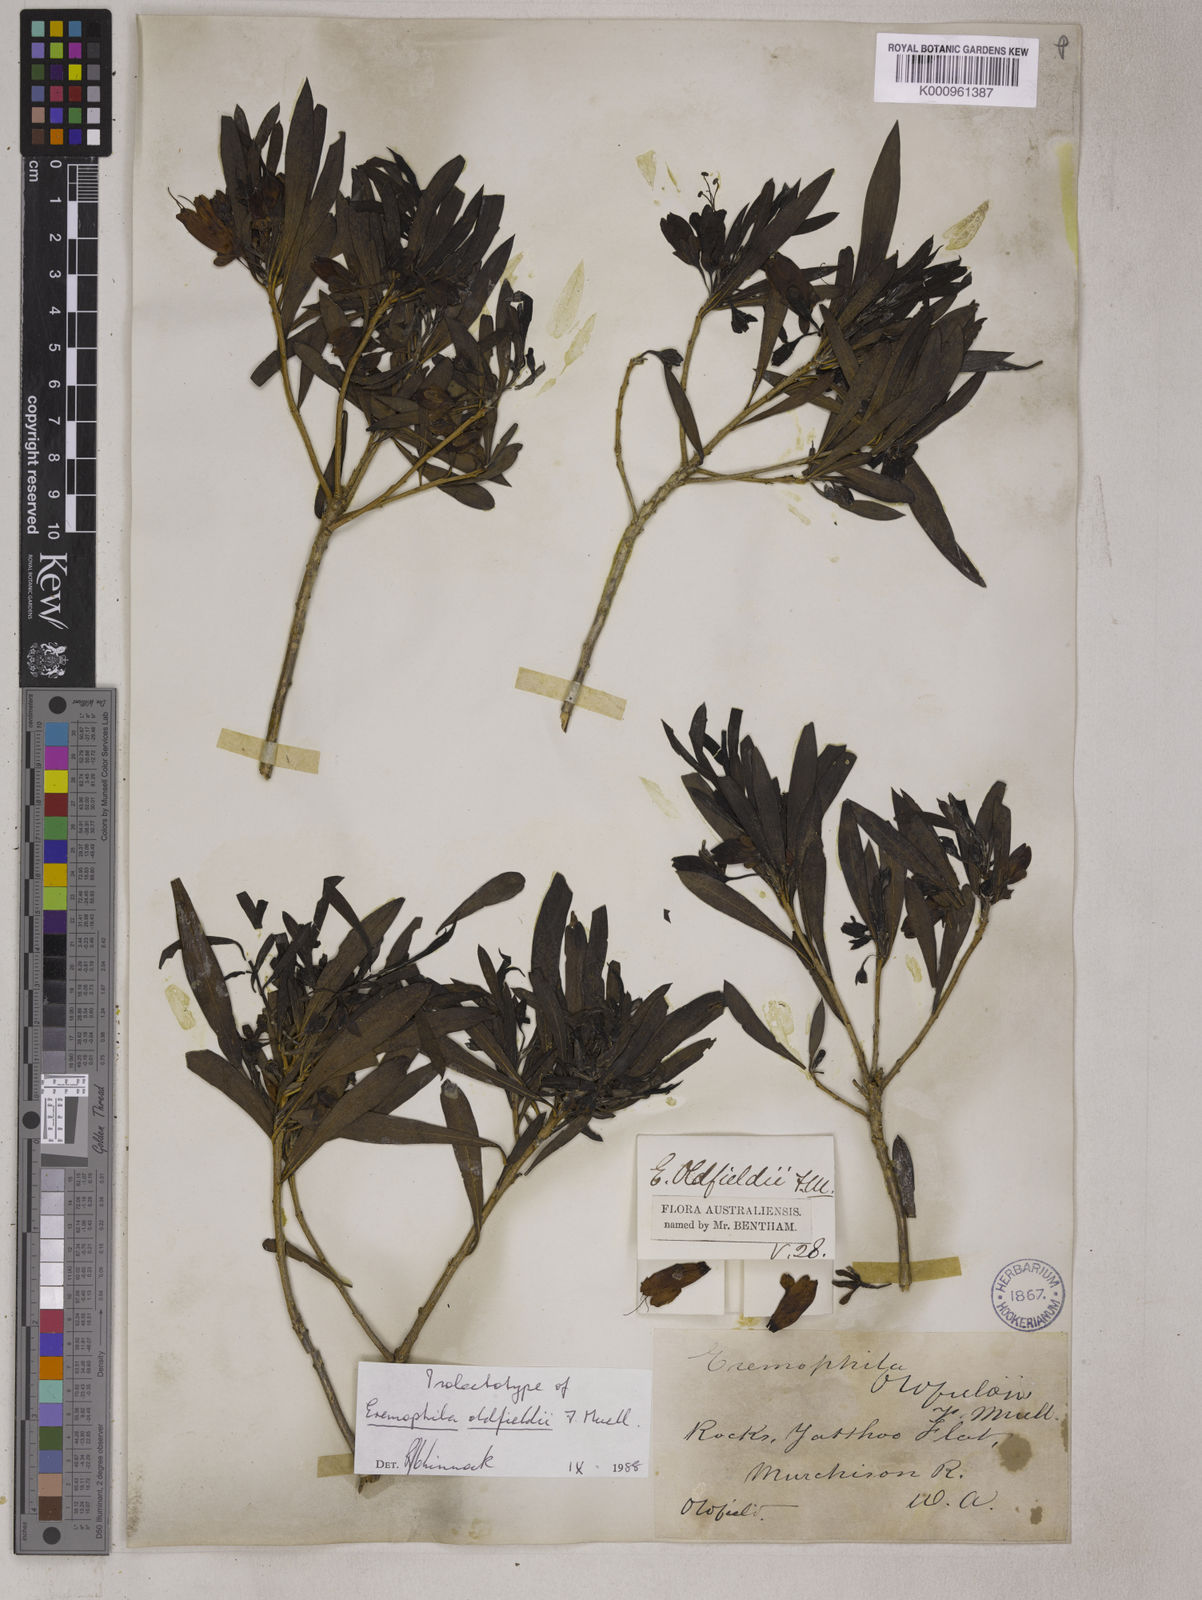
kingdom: Plantae
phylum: Tracheophyta
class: Magnoliopsida
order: Lamiales
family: Scrophulariaceae
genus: Eremophila
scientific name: Eremophila
